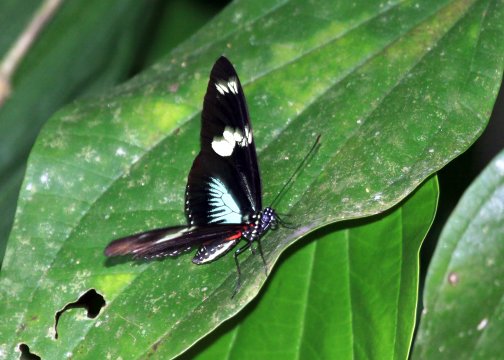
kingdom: Animalia
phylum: Arthropoda
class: Insecta
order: Lepidoptera
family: Nymphalidae
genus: Heliconius
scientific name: Heliconius doris
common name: Doris Longwing
